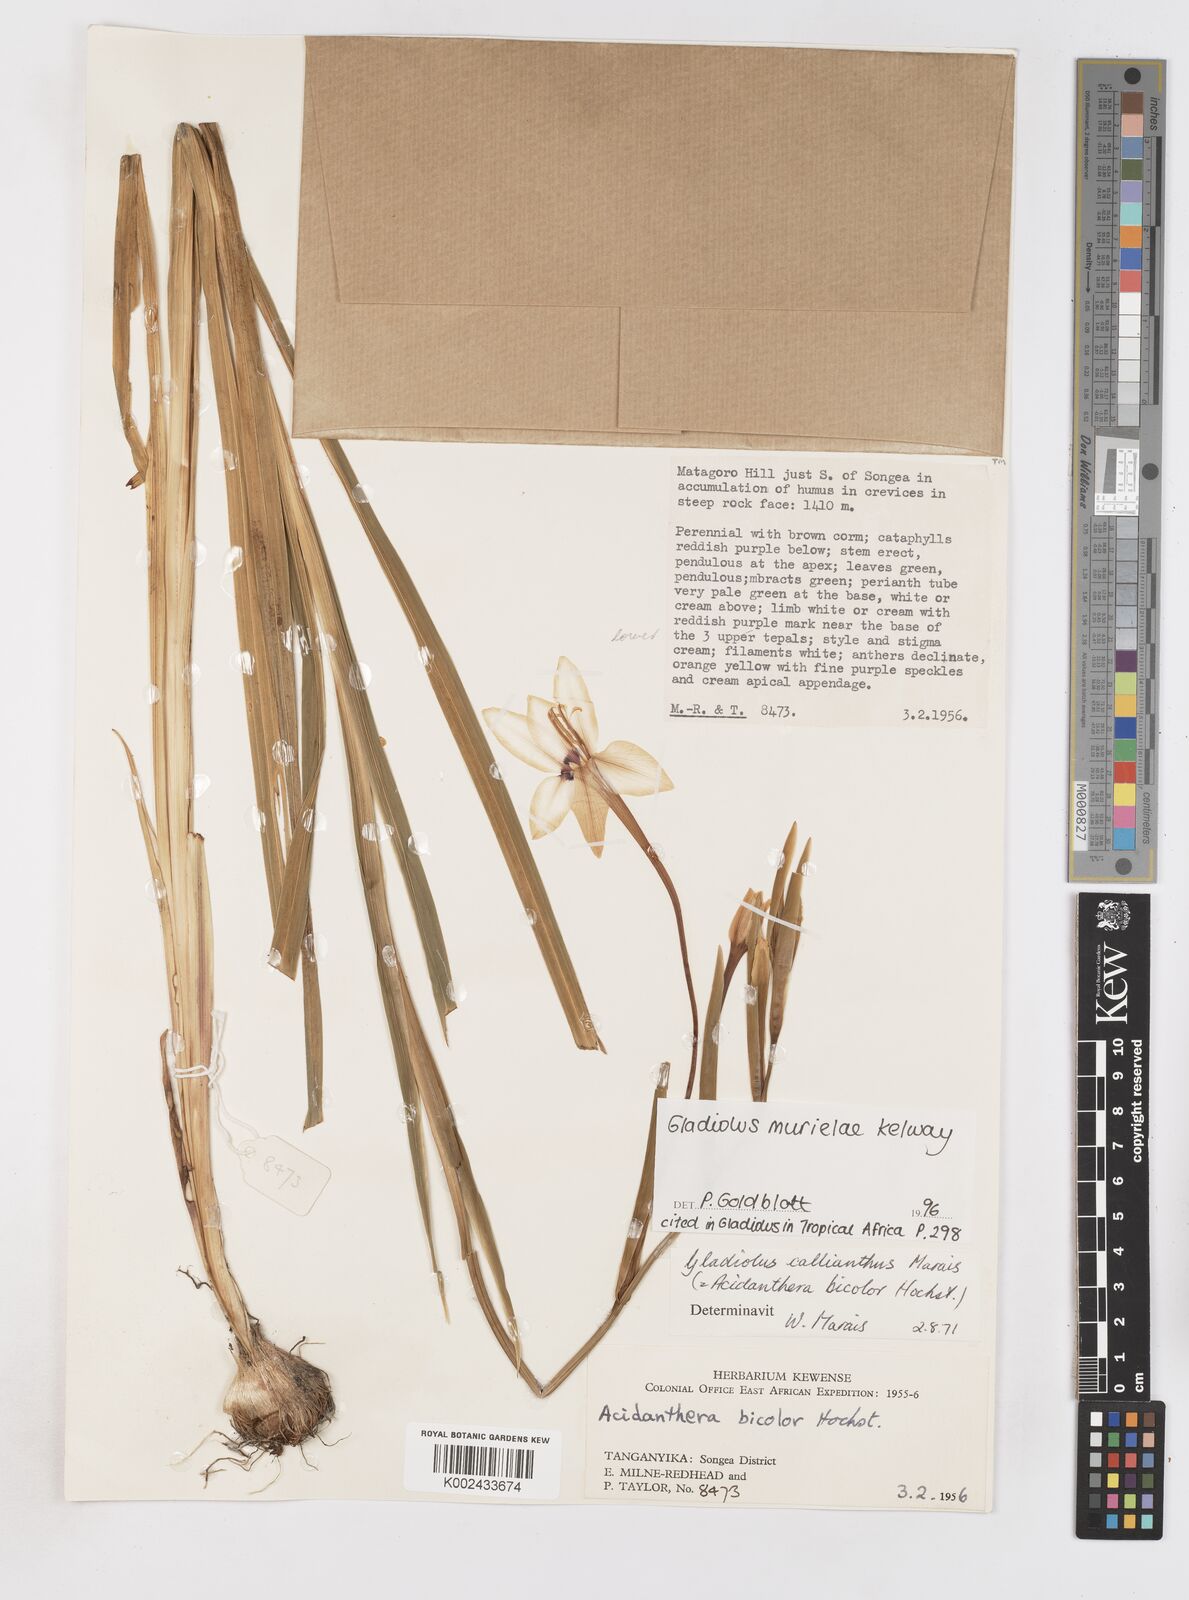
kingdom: Plantae
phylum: Tracheophyta
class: Liliopsida
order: Asparagales
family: Iridaceae
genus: Gladiolus
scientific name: Gladiolus murielae
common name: Acidanthera
